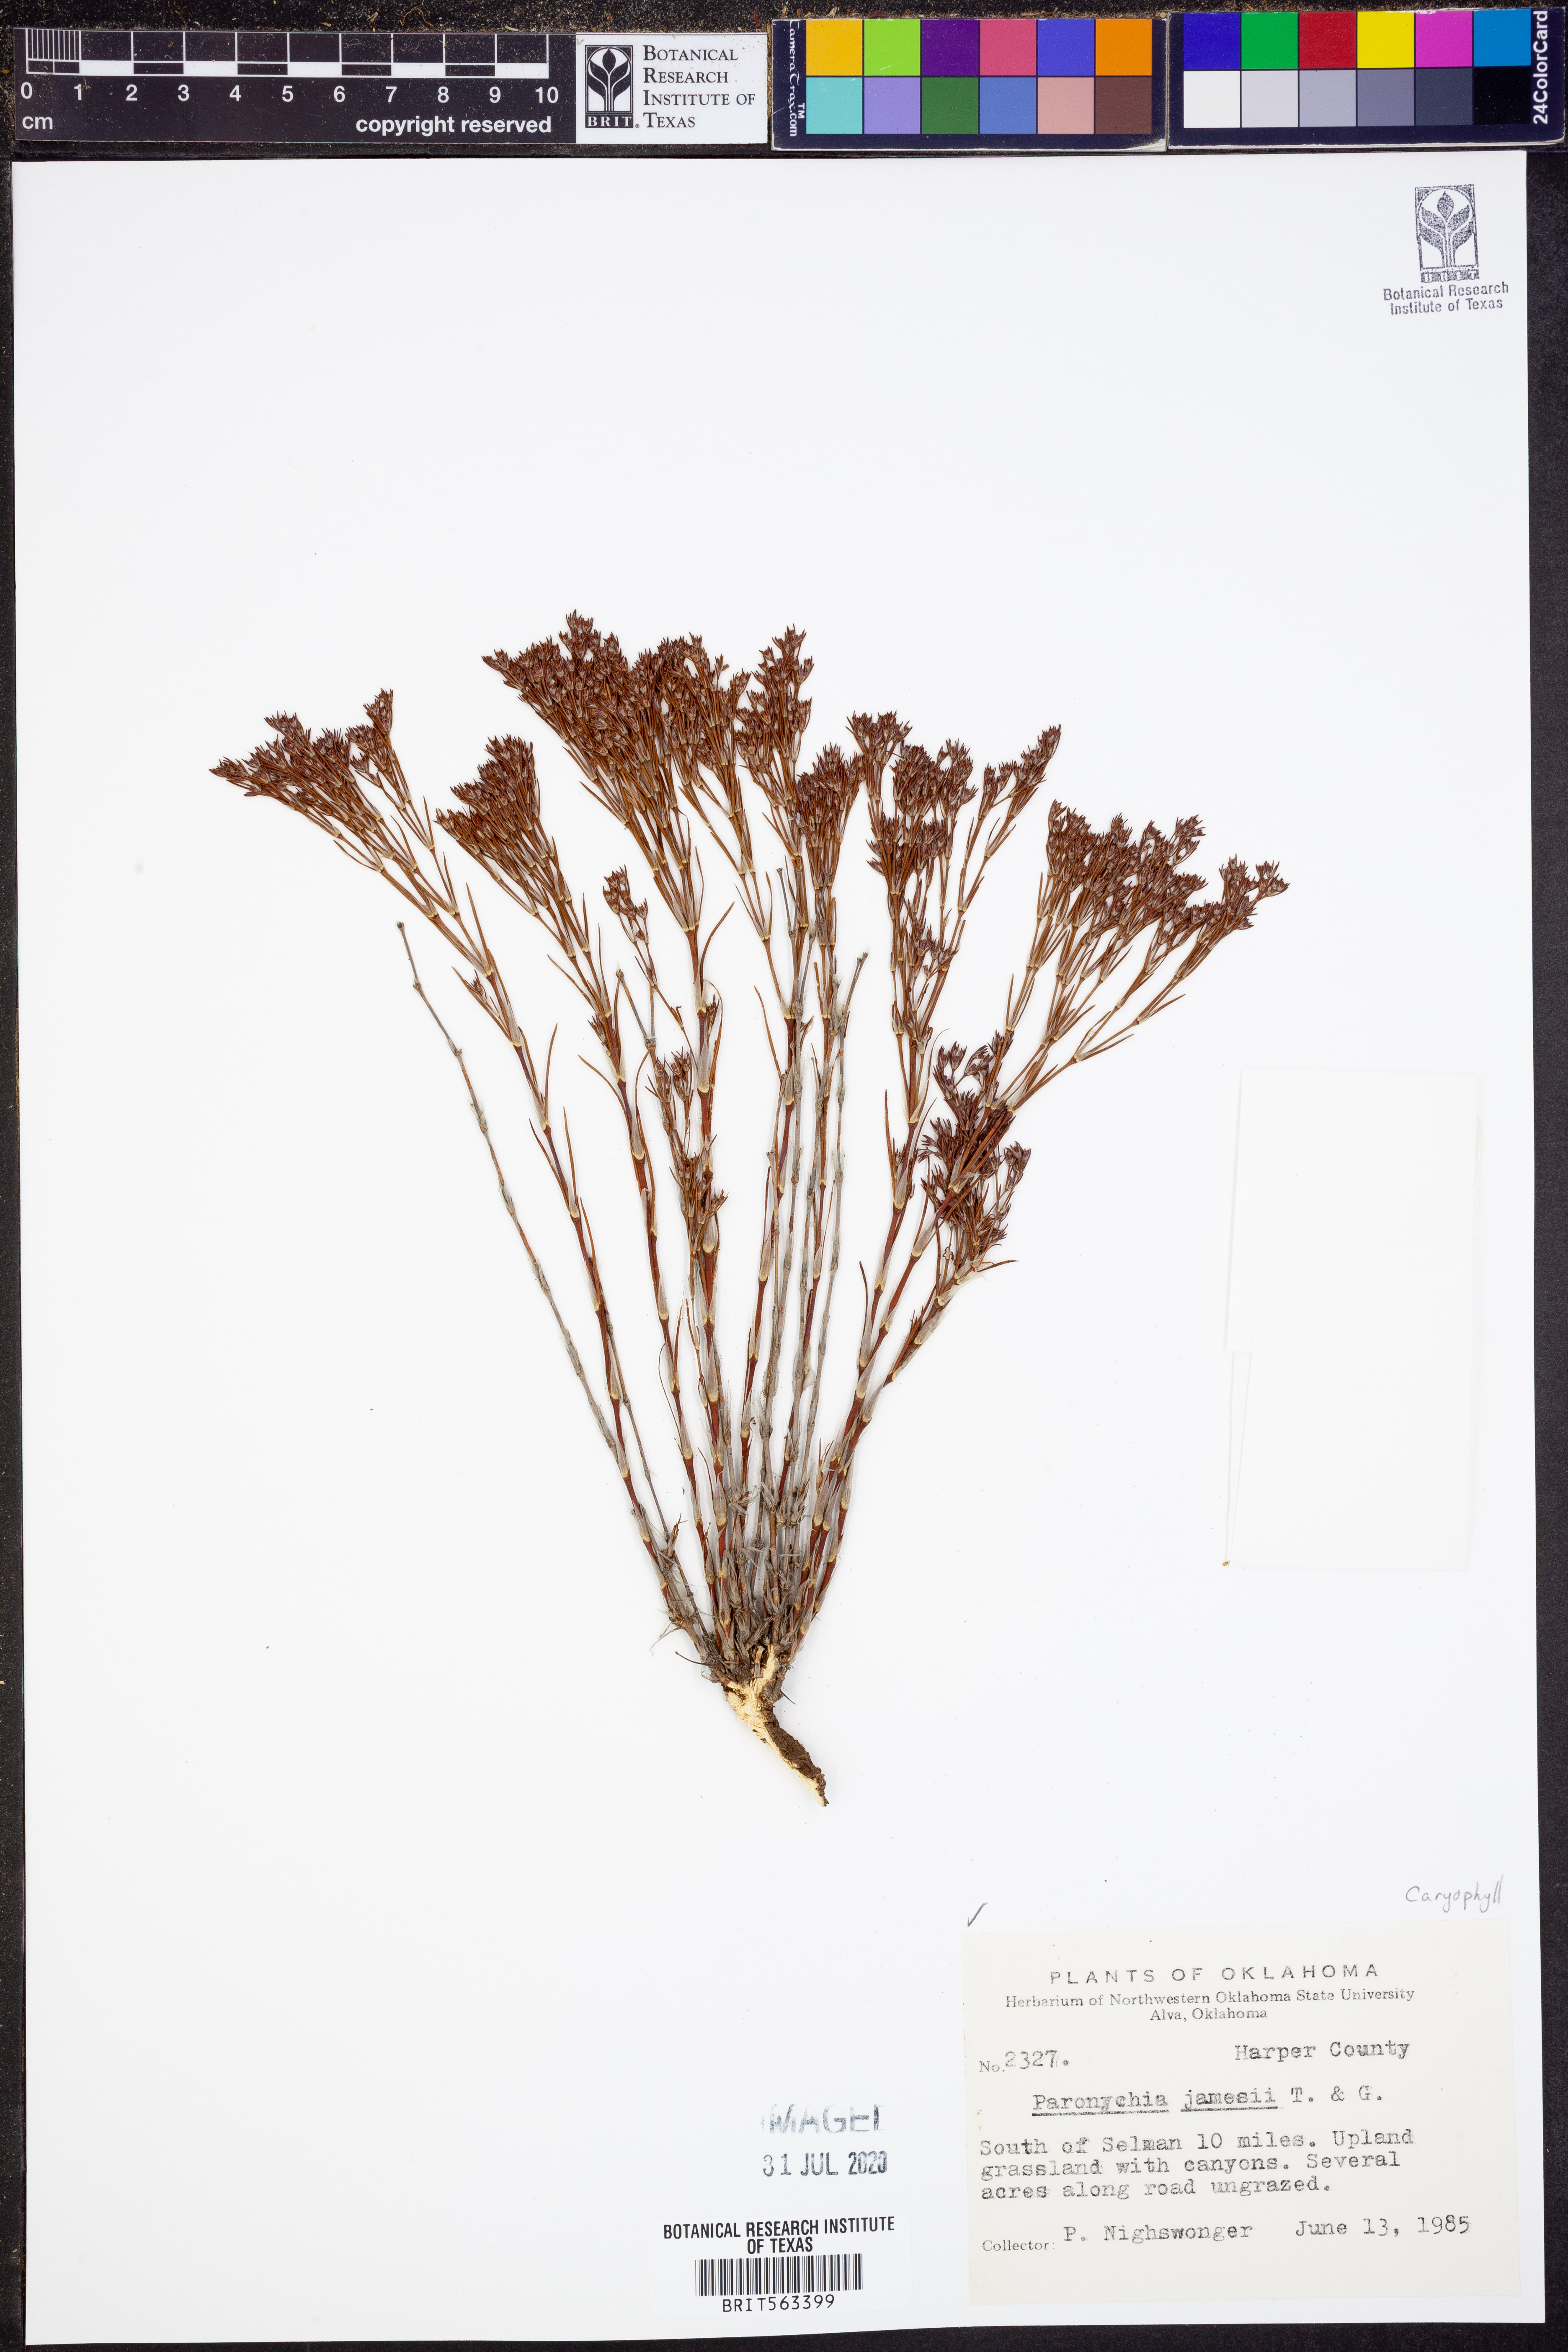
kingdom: Plantae
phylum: Tracheophyta
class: Magnoliopsida
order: Caryophyllales
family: Caryophyllaceae
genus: Paronychia
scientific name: Paronychia jamesii
